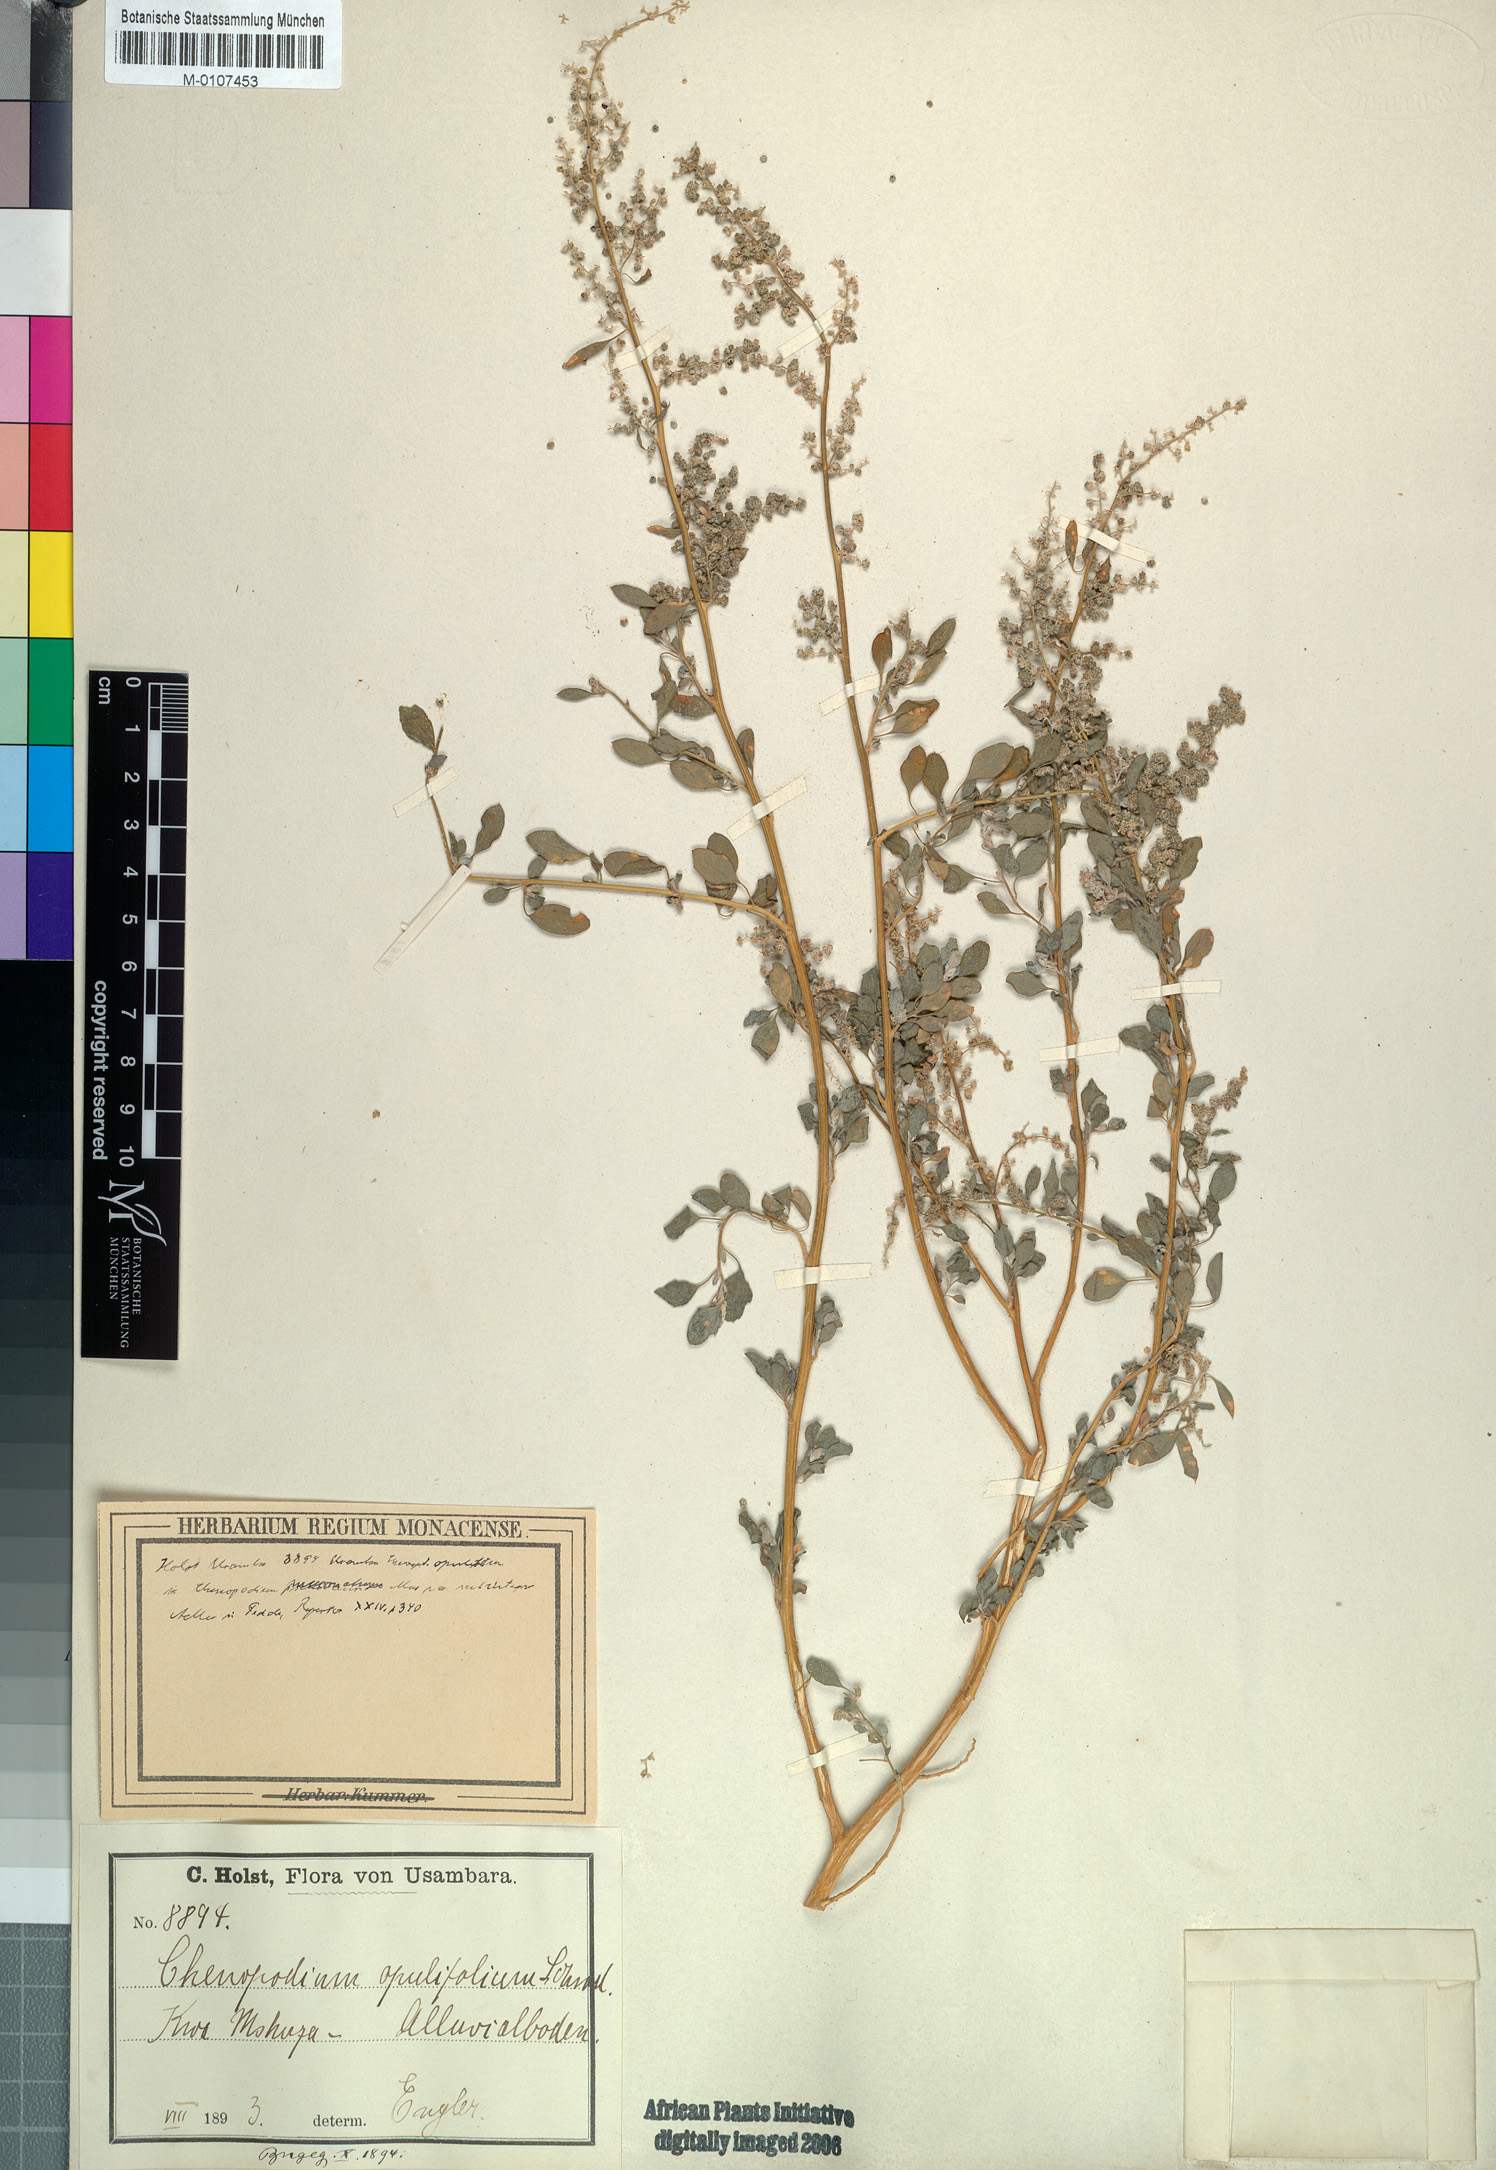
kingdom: Plantae
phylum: Tracheophyta
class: Magnoliopsida
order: Caryophyllales
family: Amaranthaceae
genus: Chenopodium
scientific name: Chenopodium opulifolium
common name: Grey goosefoot
